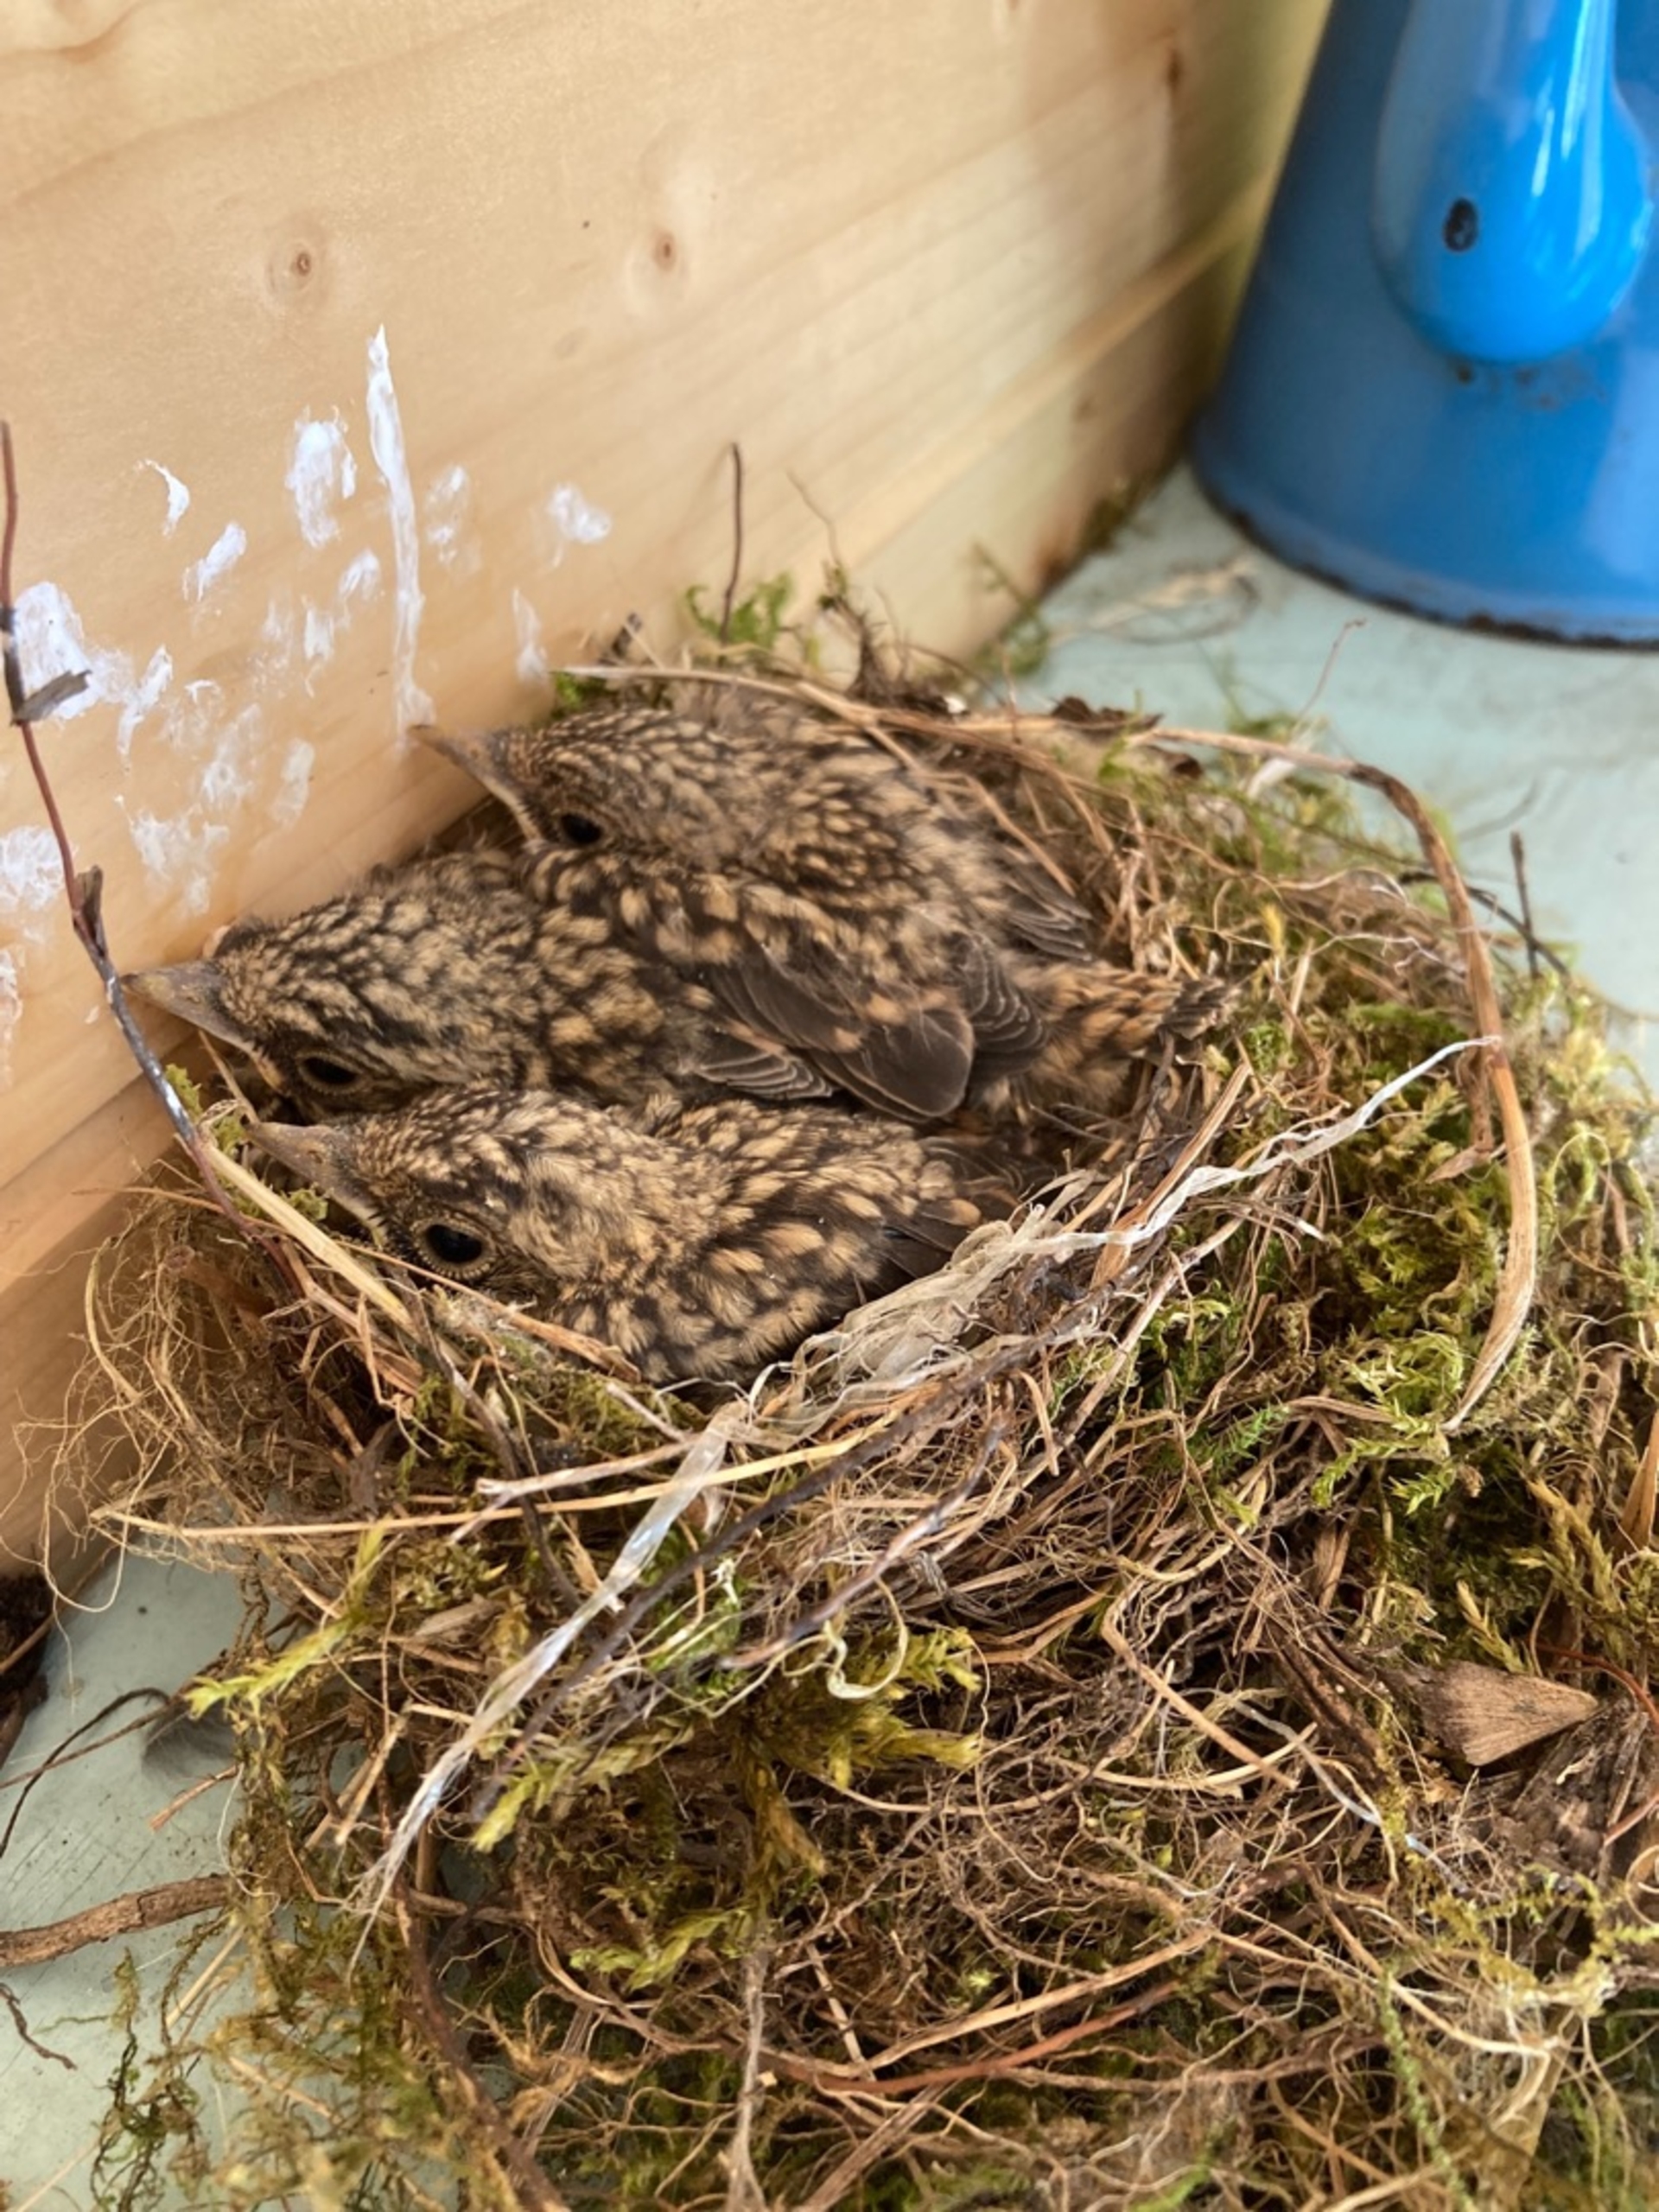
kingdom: Animalia
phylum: Chordata
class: Aves
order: Passeriformes
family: Turdidae
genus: Turdus
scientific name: Turdus merula
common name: Solsort
